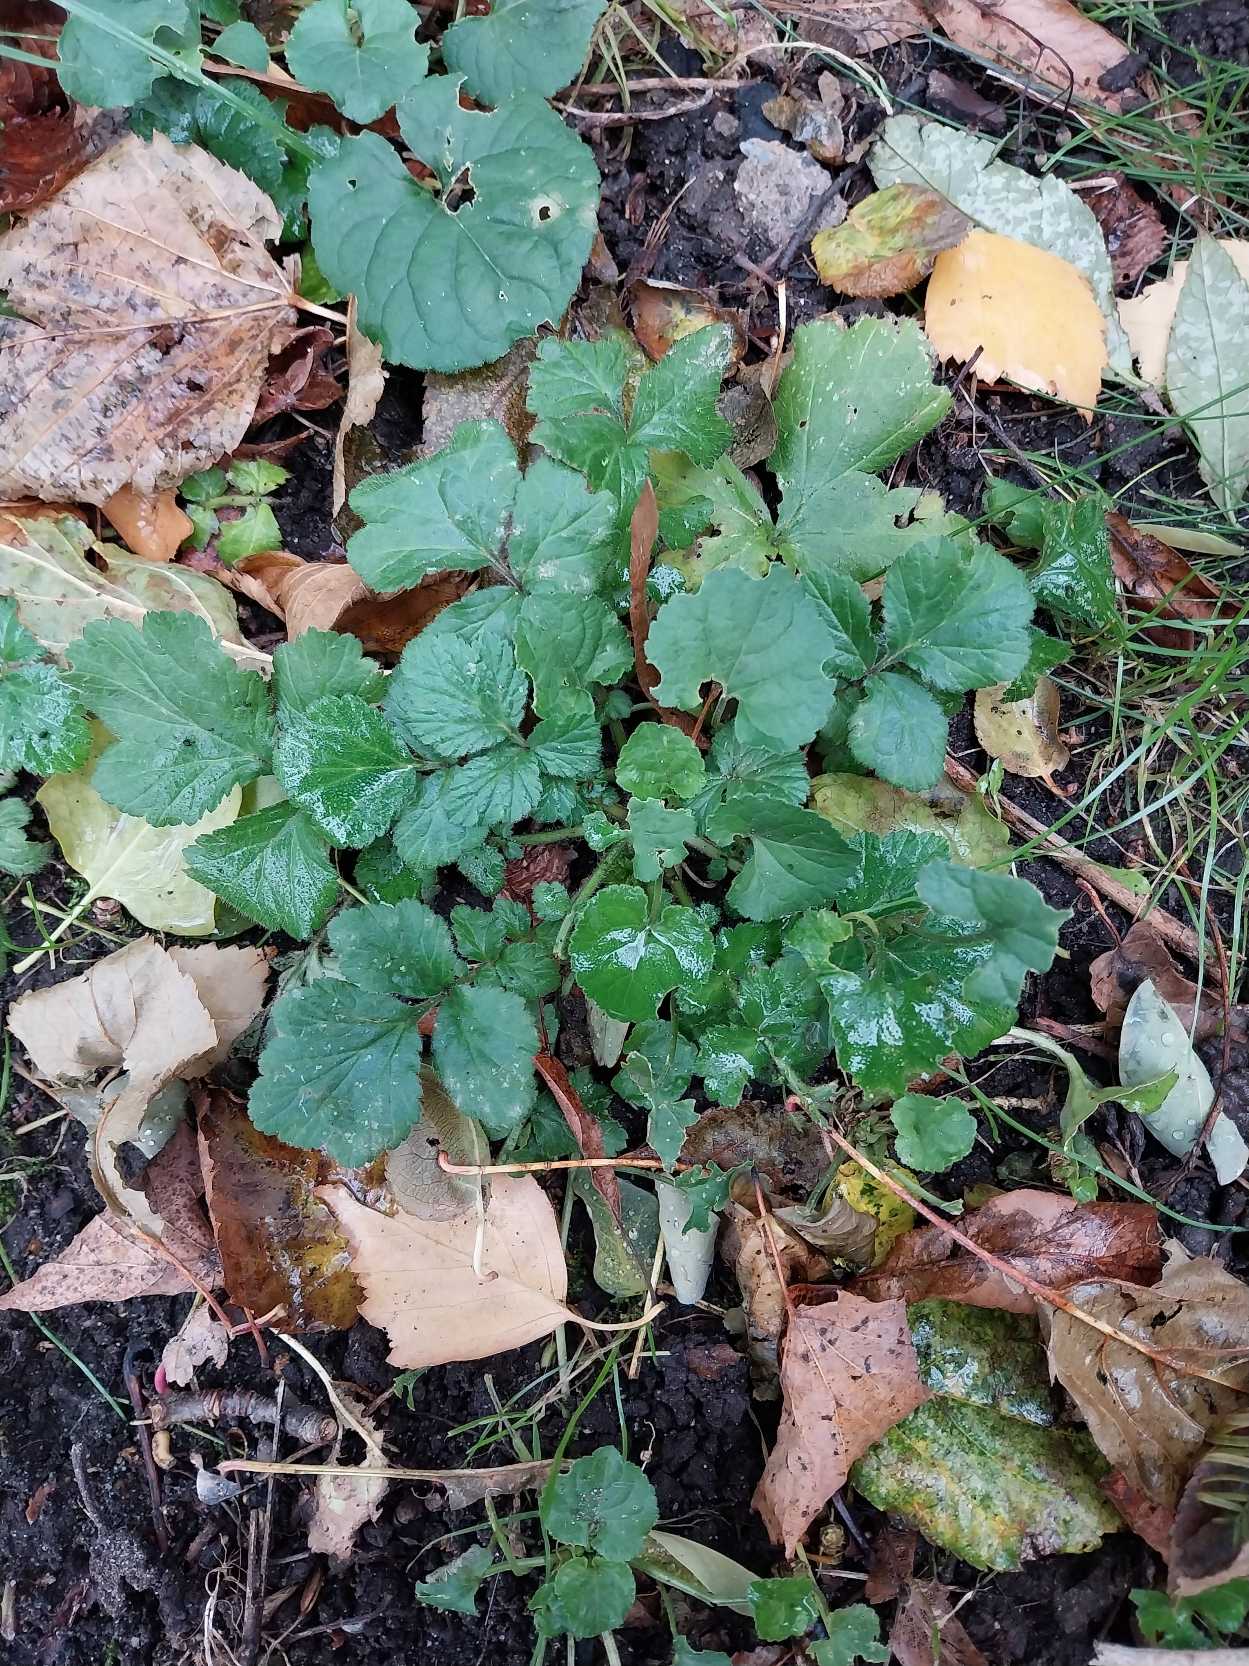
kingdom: Plantae
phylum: Tracheophyta
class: Magnoliopsida
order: Rosales
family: Rosaceae
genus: Geum
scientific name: Geum urbanum
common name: Feber-nellikerod
